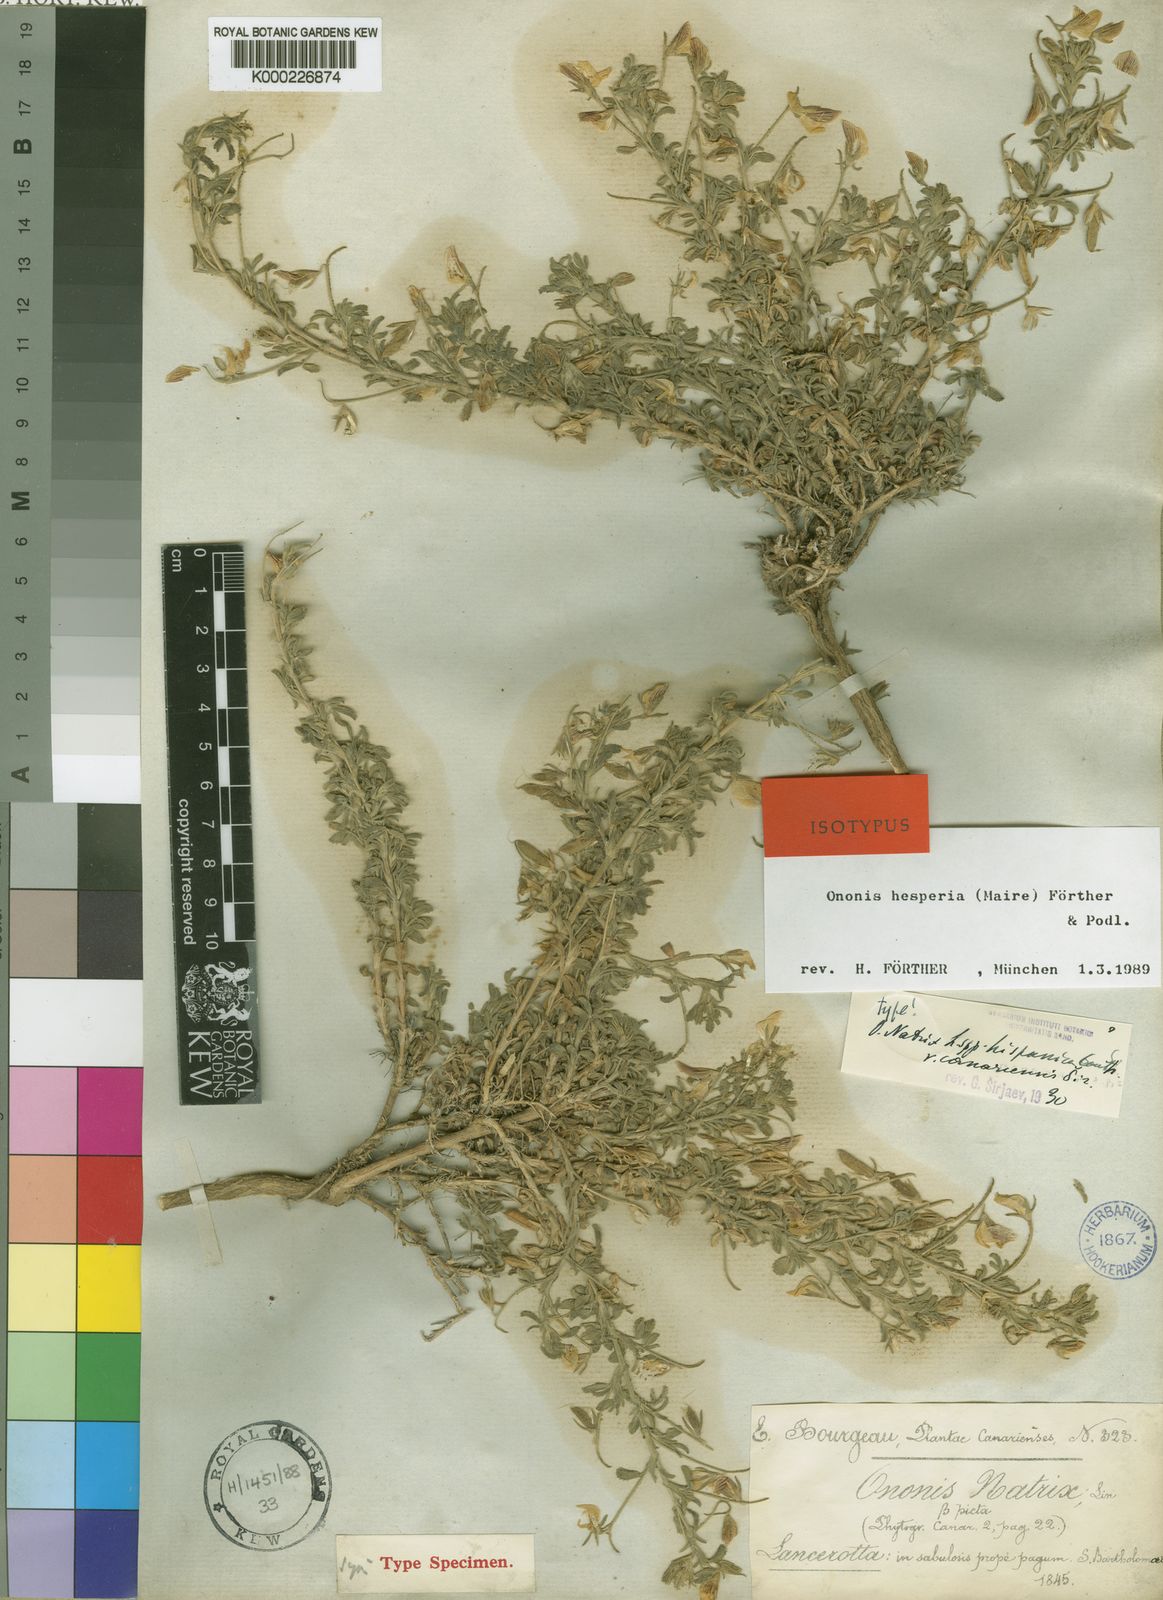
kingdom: Plantae
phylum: Tracheophyta
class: Magnoliopsida
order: Fabales
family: Fabaceae
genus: Ononis
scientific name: Ononis
